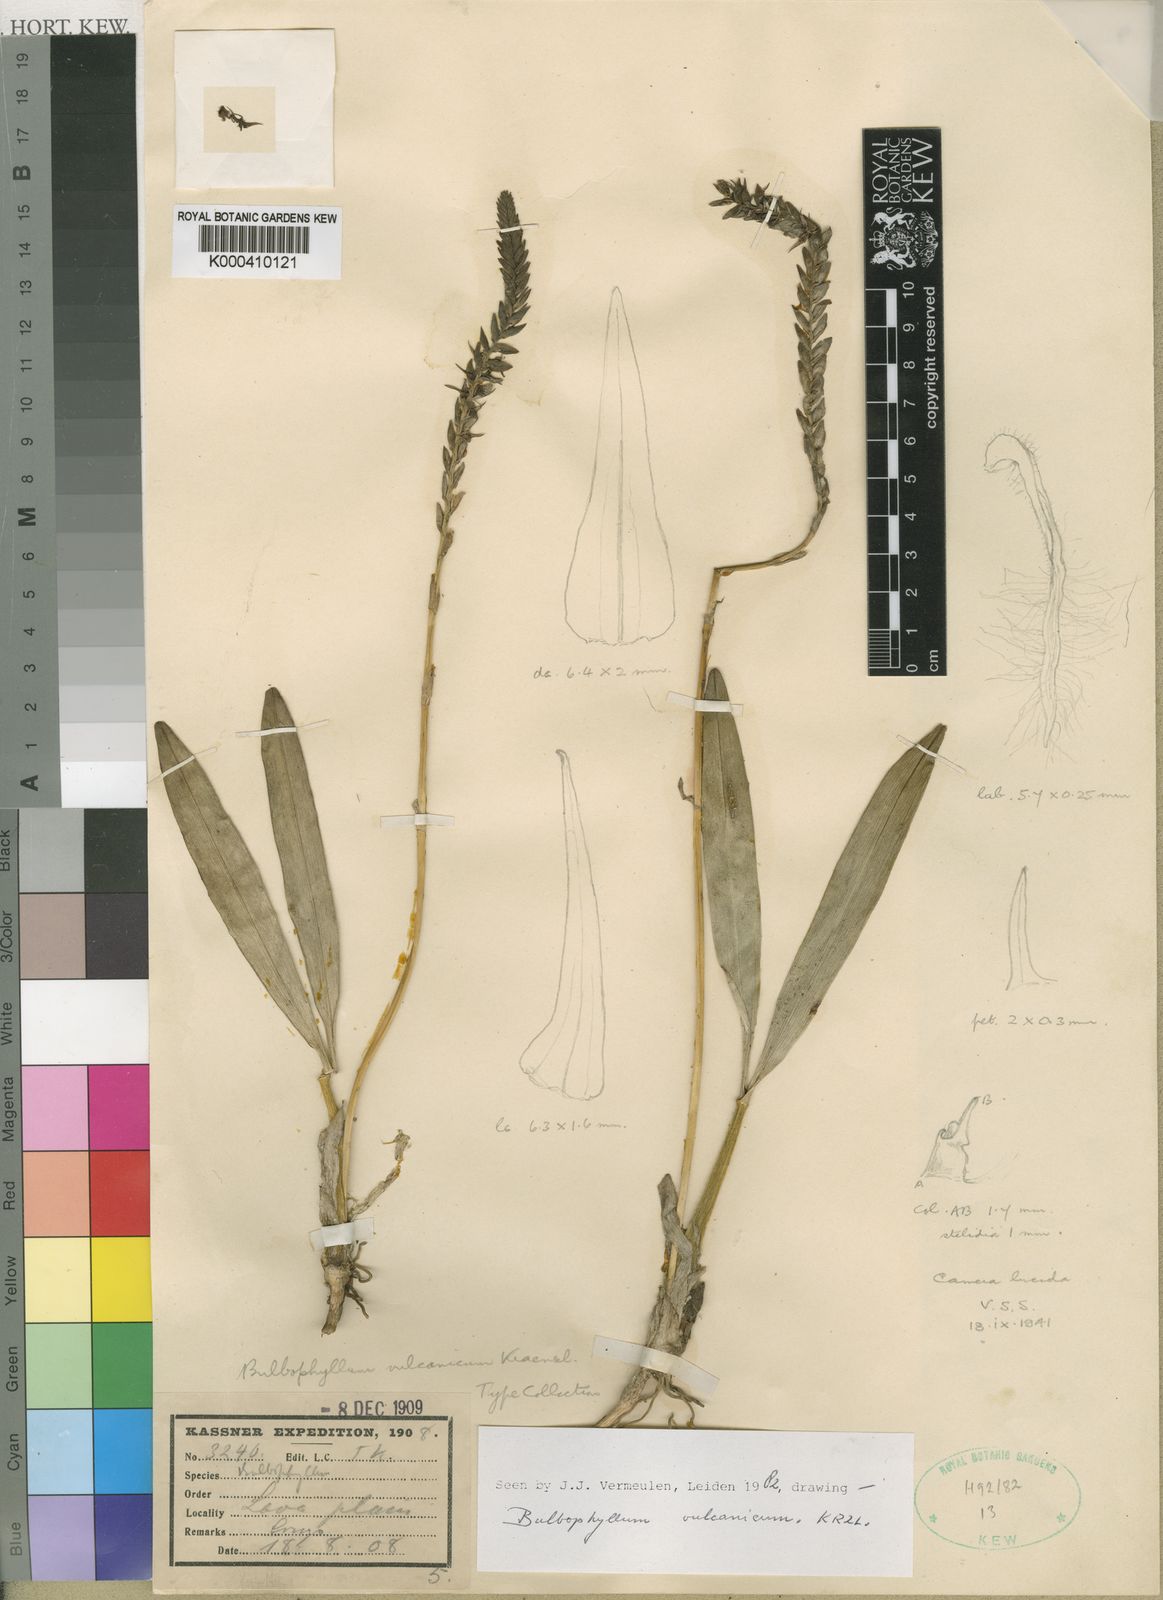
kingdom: Plantae
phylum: Tracheophyta
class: Liliopsida
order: Asparagales
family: Orchidaceae
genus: Bulbophyllum
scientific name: Bulbophyllum vulcanicum
